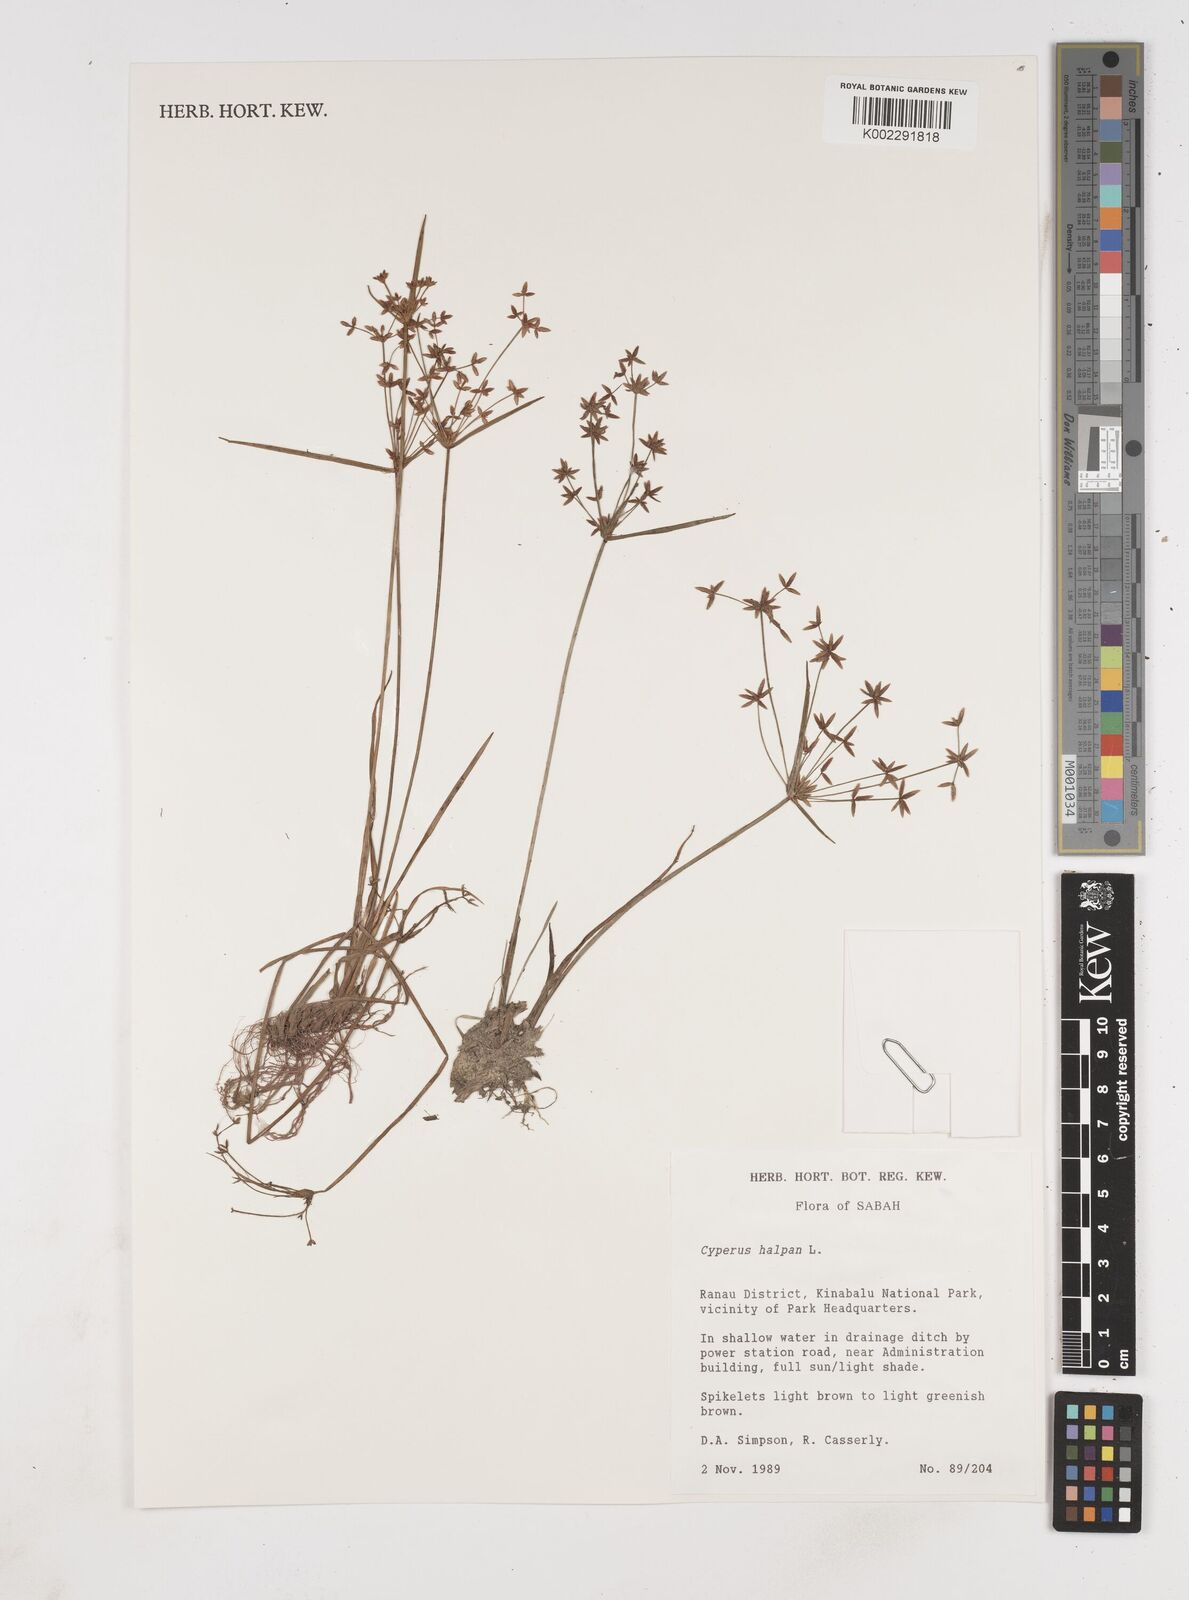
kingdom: Plantae
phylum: Tracheophyta
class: Liliopsida
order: Poales
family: Cyperaceae
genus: Cyperus
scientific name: Cyperus haspan
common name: Haspan flatsedge
